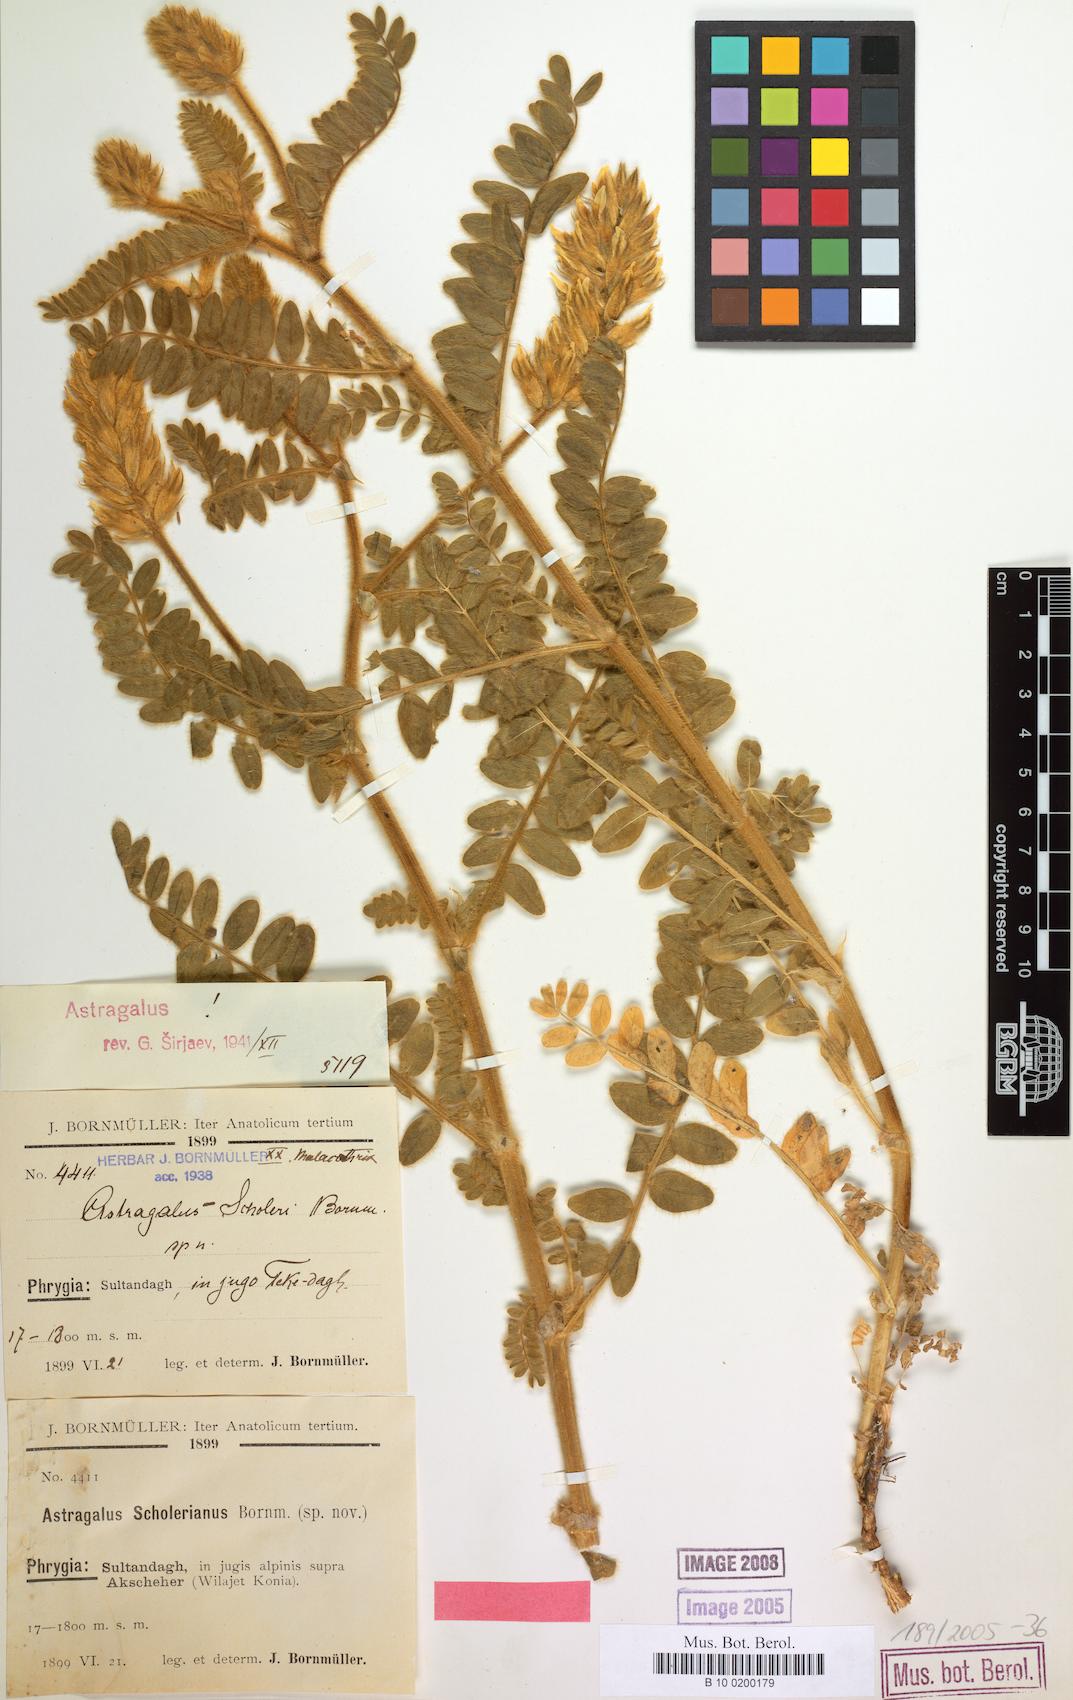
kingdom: Plantae
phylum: Tracheophyta
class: Magnoliopsida
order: Fabales
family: Fabaceae
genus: Astragalus
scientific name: Astragalus scholerianus
